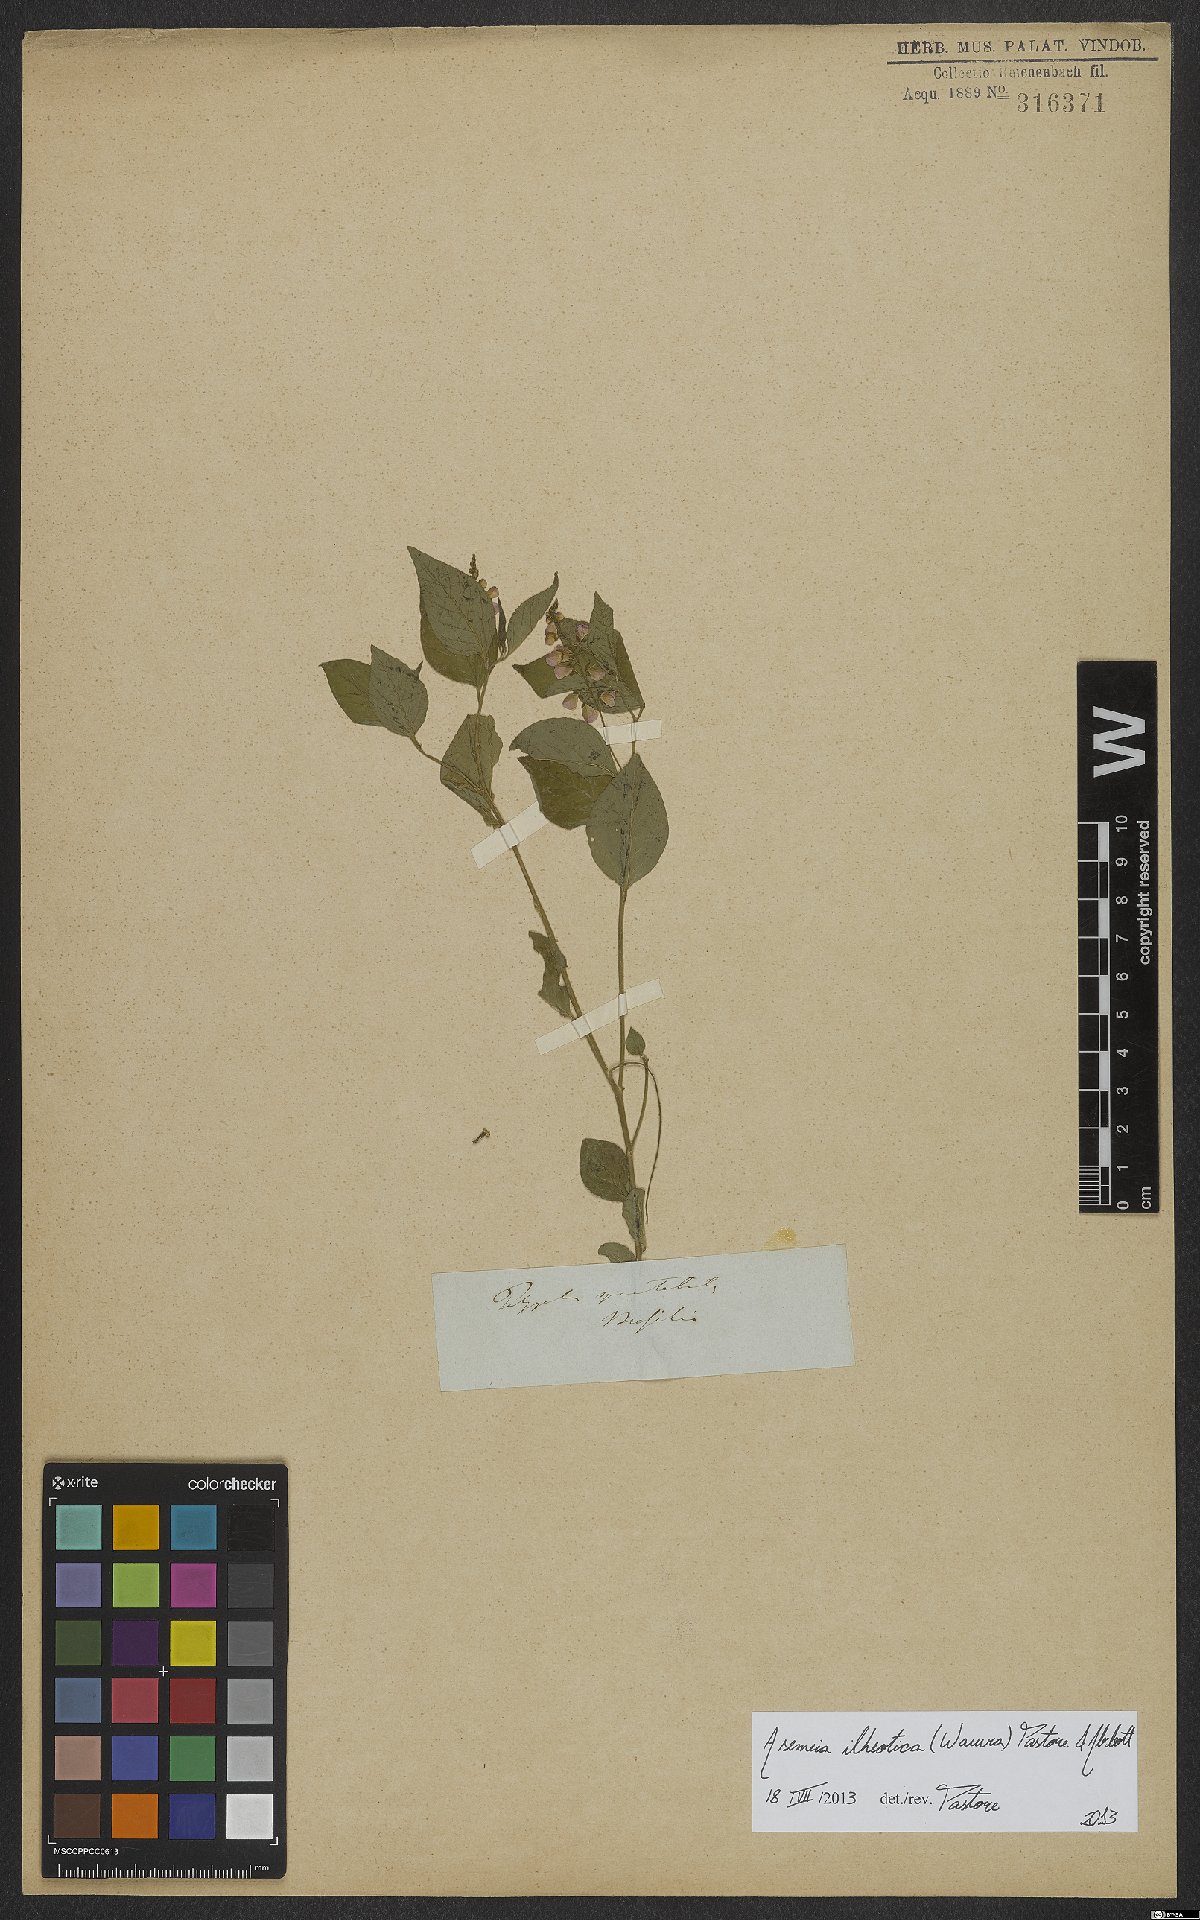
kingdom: Plantae
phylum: Tracheophyta
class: Magnoliopsida
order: Fabales
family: Polygalaceae
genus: Asemeia
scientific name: Asemeia ilheotica
